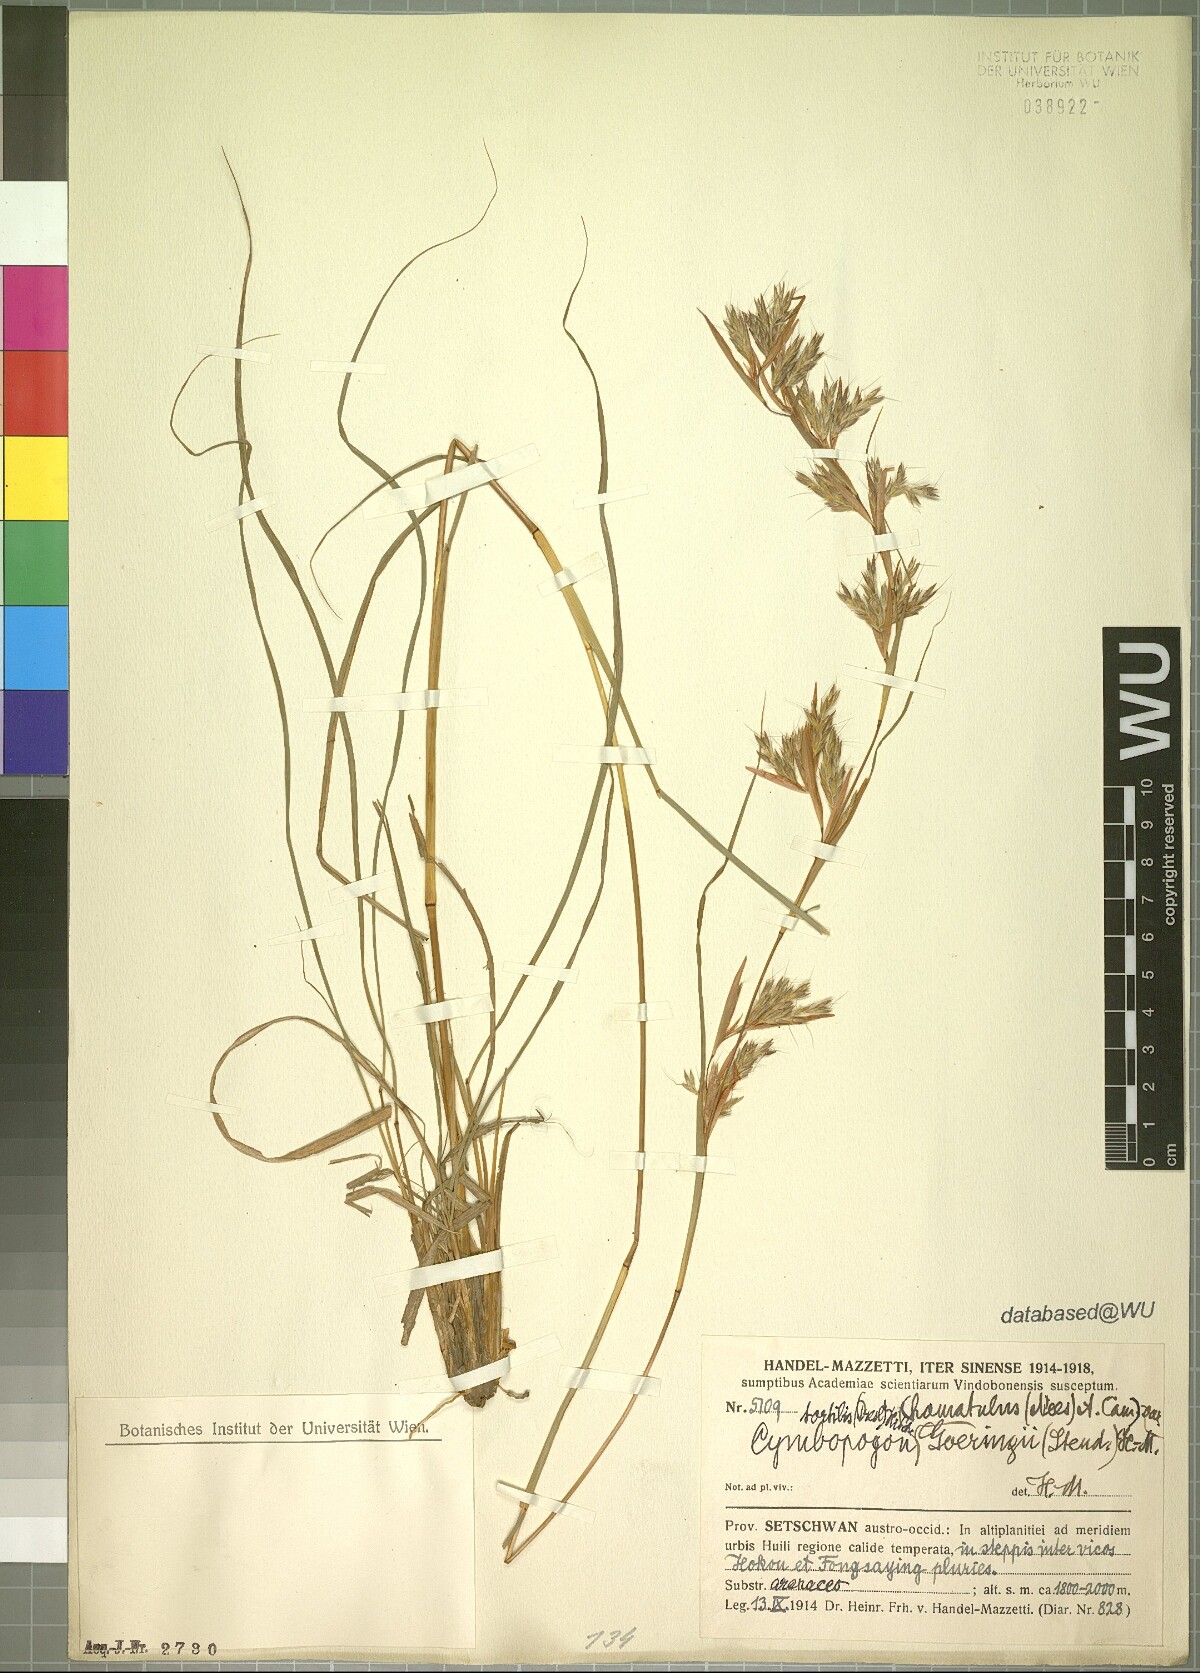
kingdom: Plantae
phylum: Tracheophyta
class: Liliopsida
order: Poales
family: Poaceae
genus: Cymbopogon
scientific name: Cymbopogon tortilis
